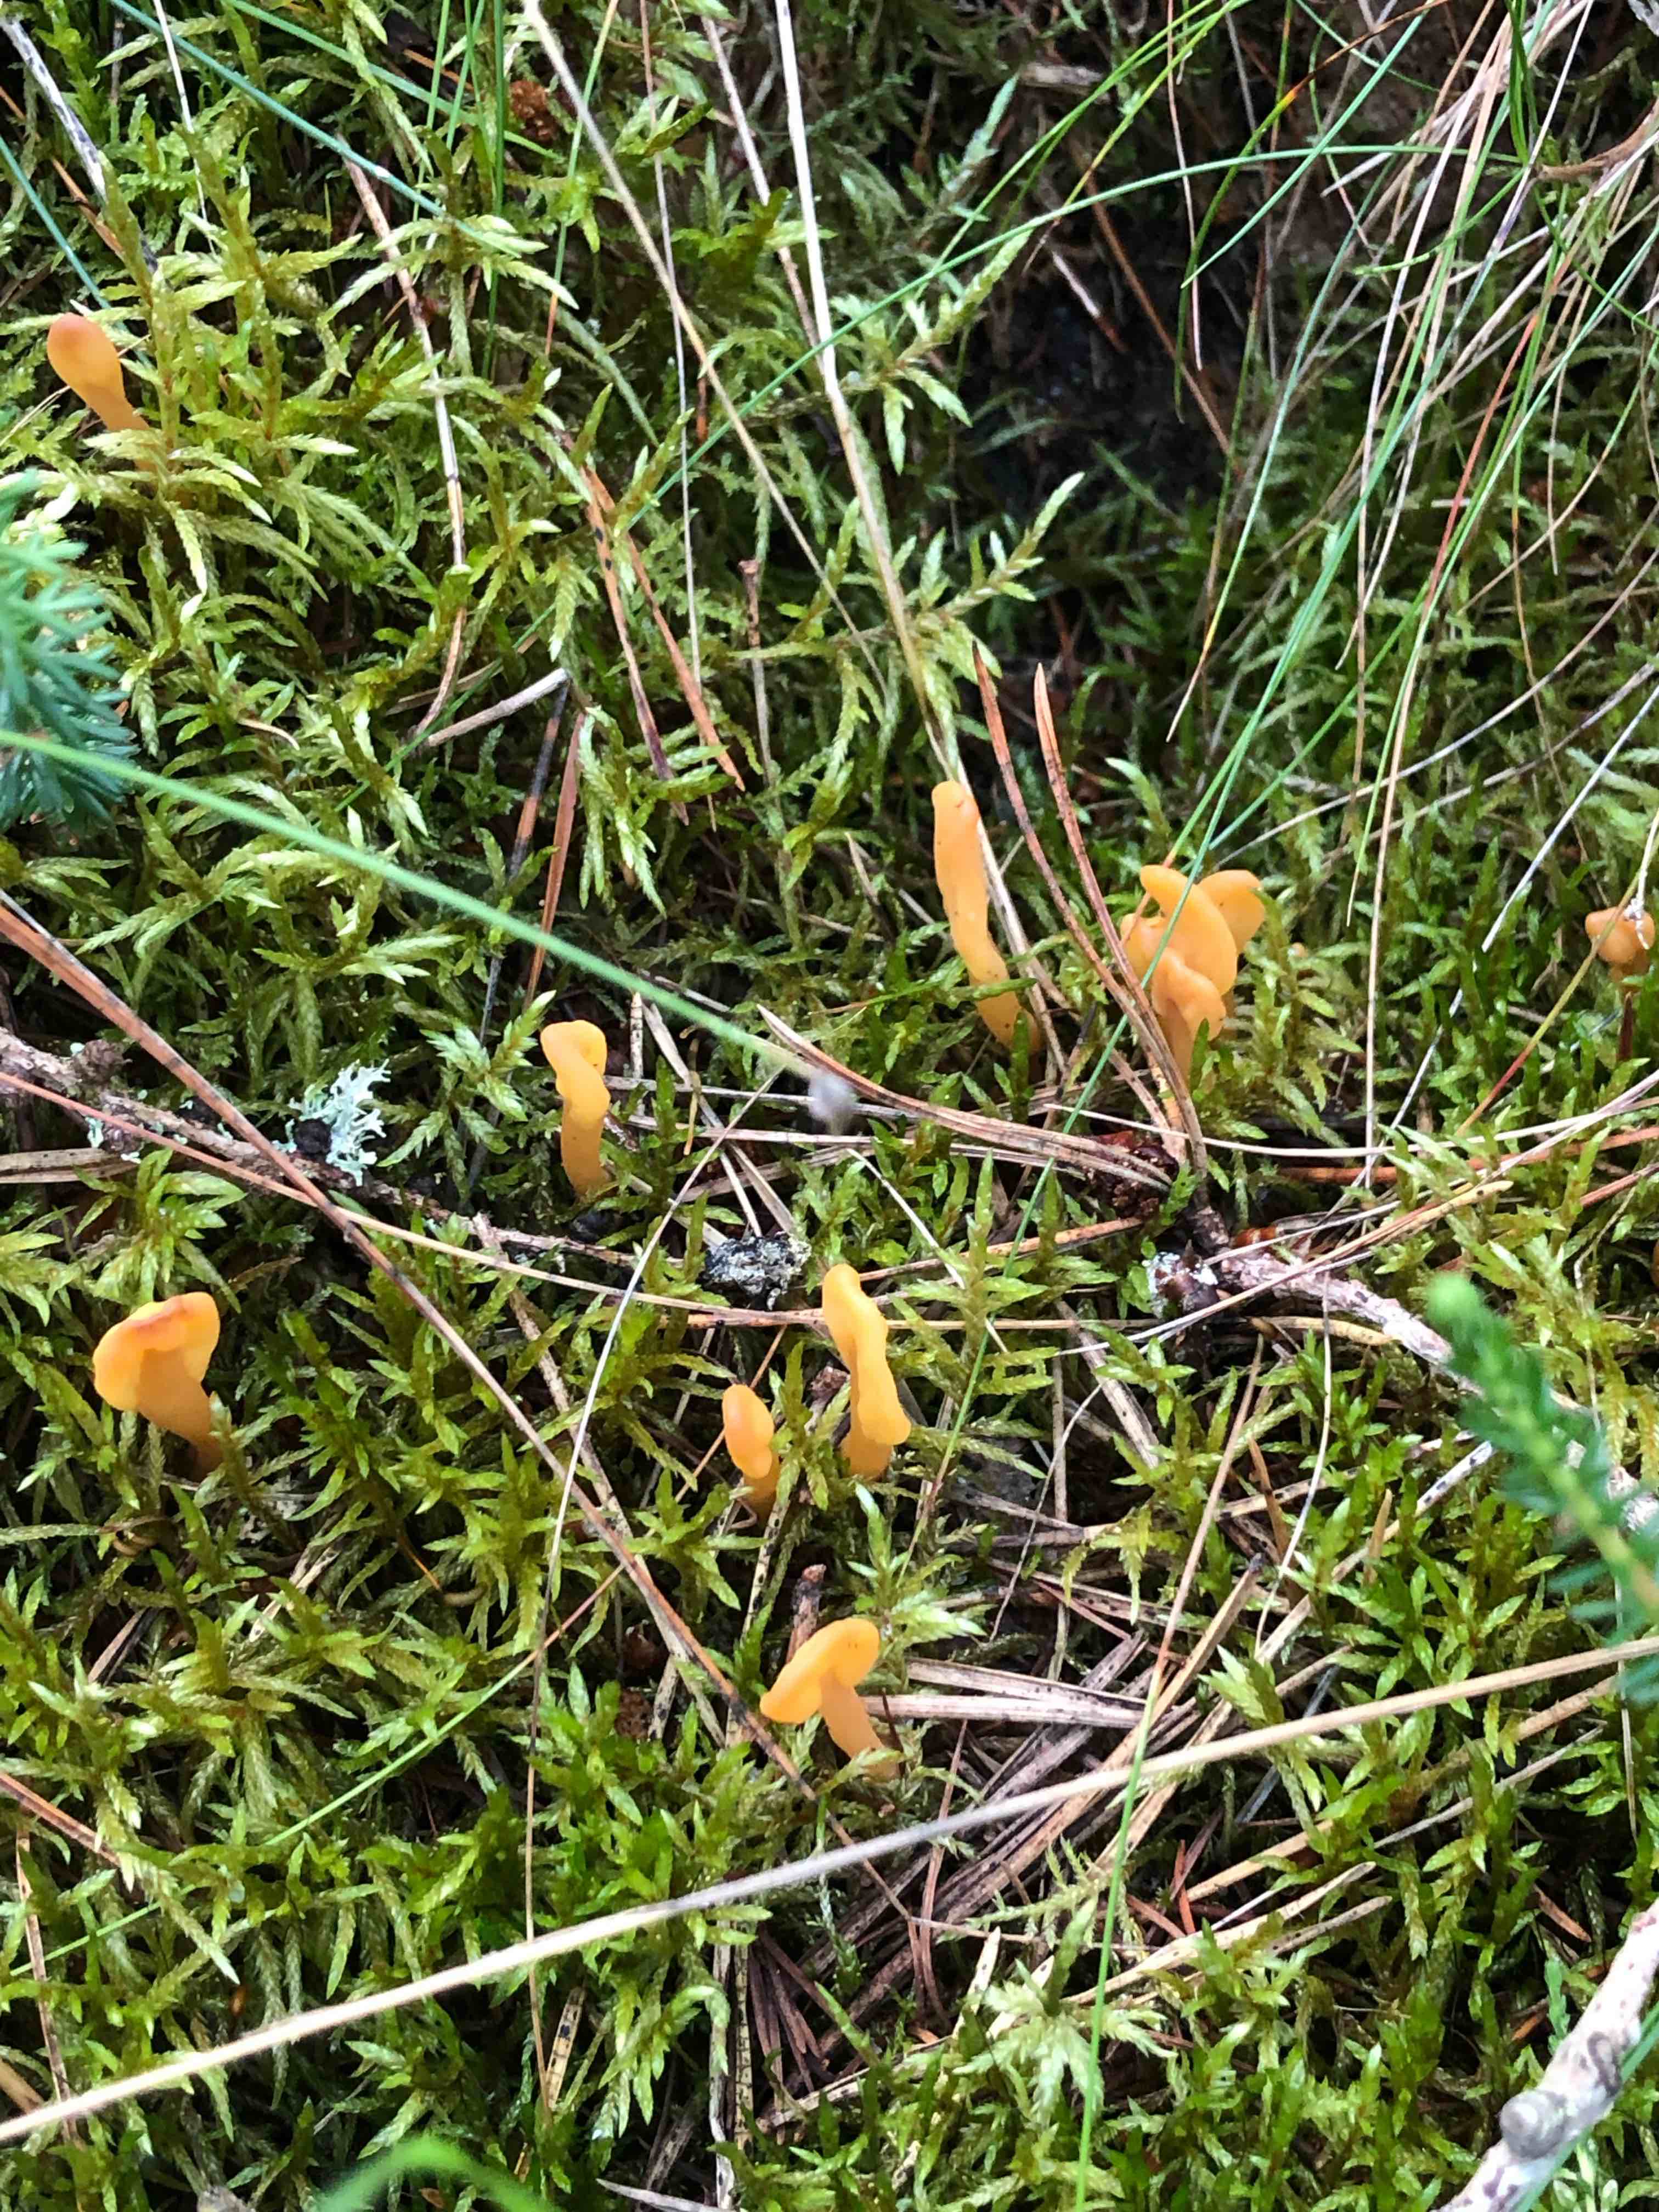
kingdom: Fungi
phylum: Ascomycota
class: Leotiomycetes
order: Rhytismatales
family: Cudoniaceae
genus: Spathularia
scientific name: Spathularia flavida
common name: gul spatelsvamp
